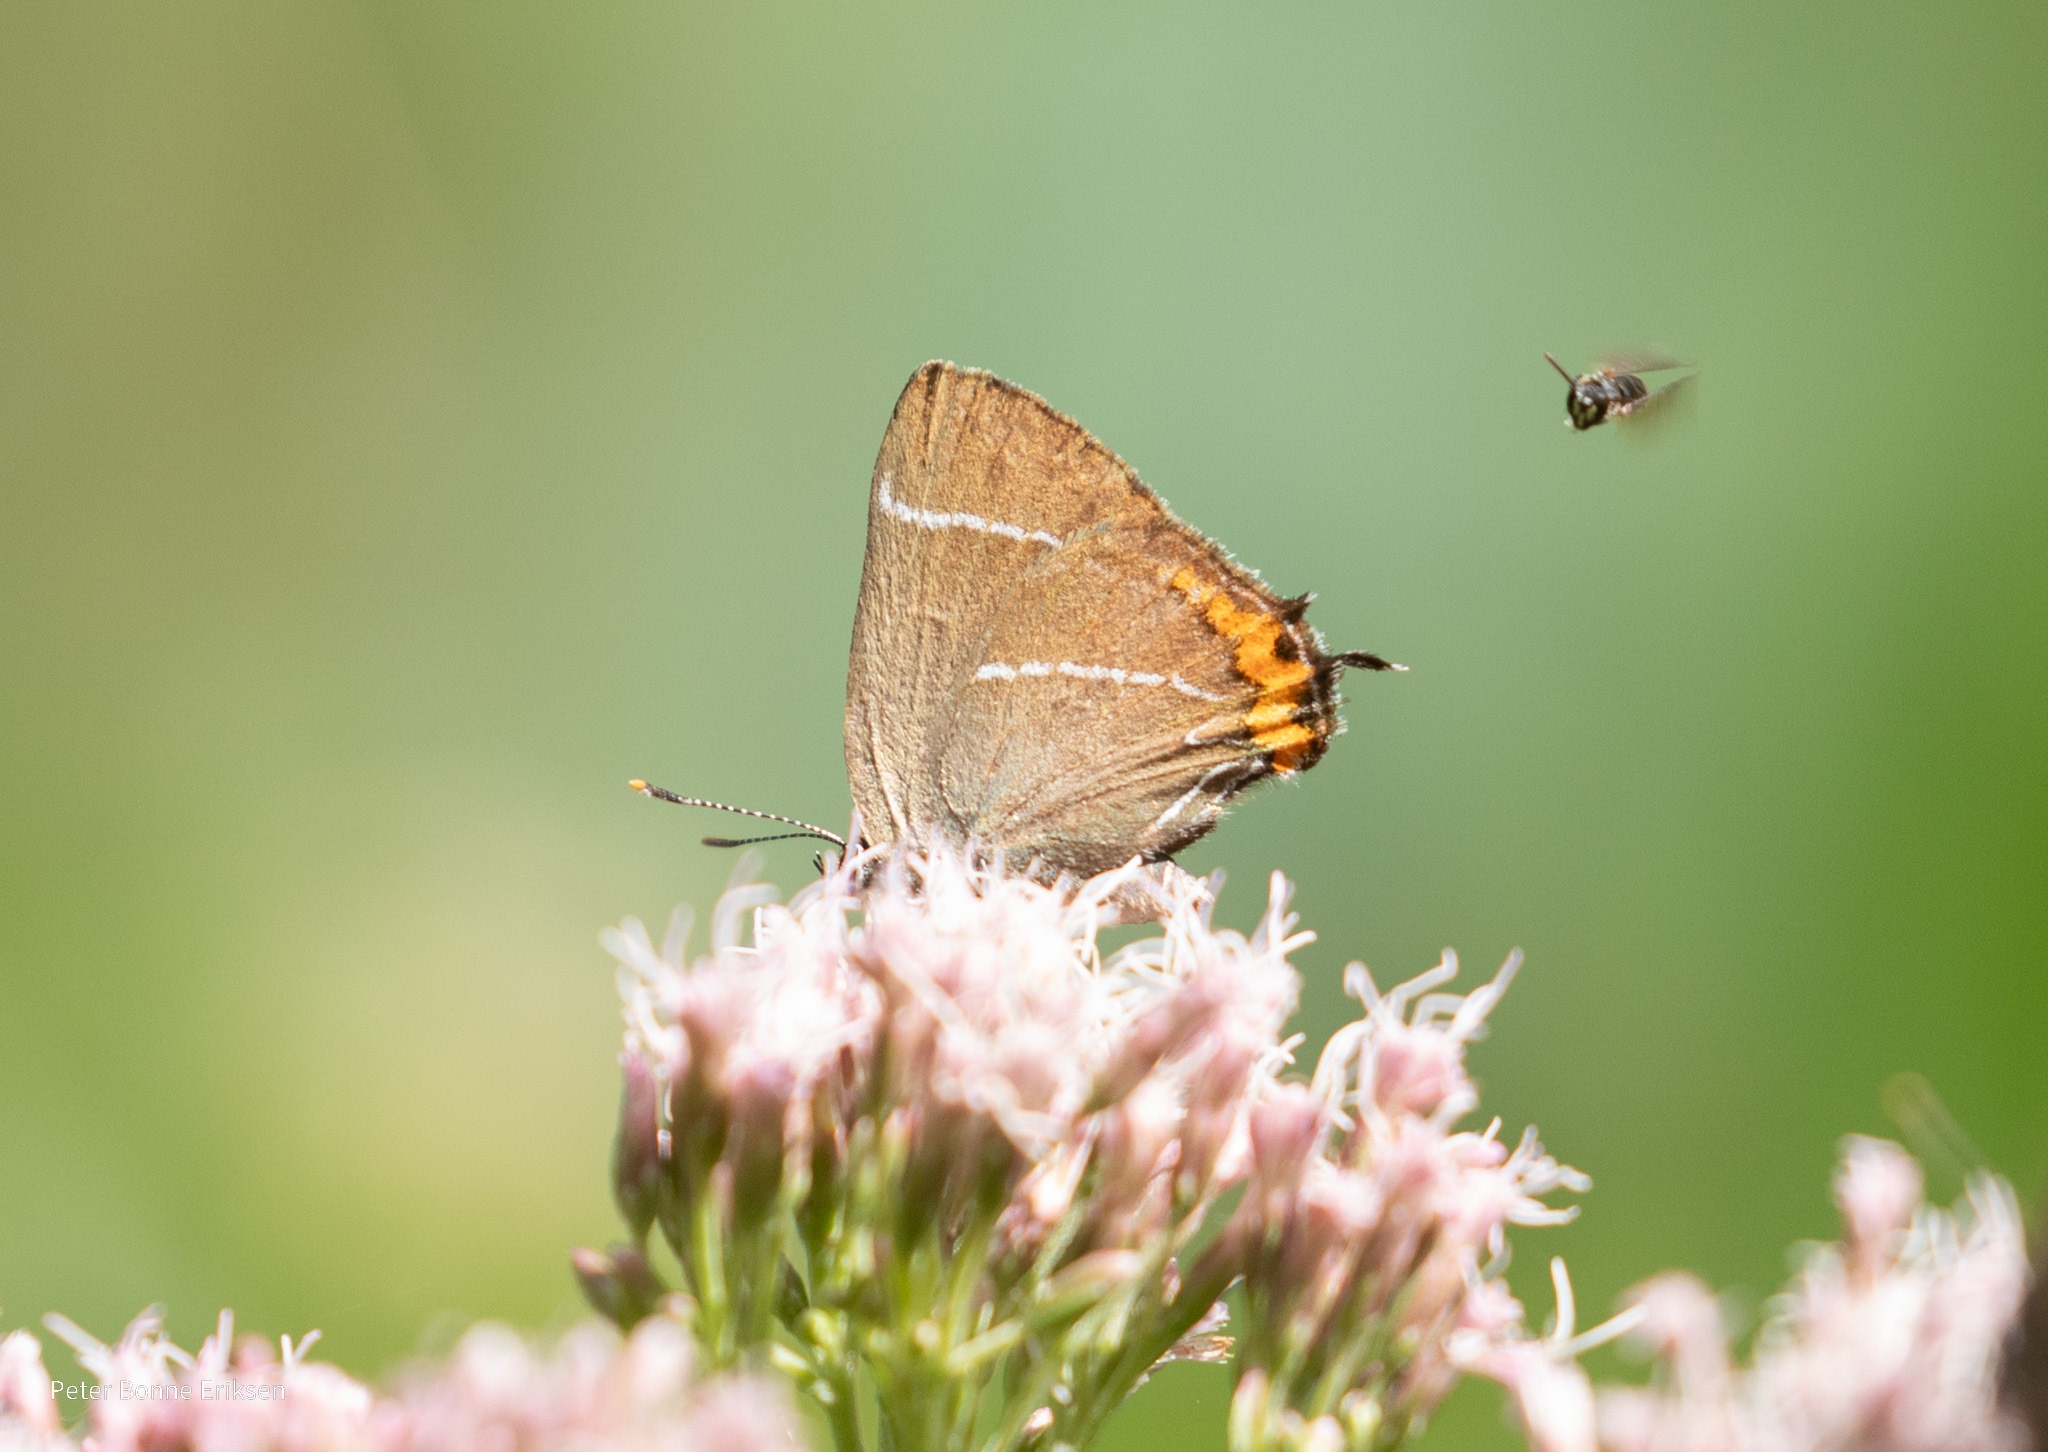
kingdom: Animalia
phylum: Arthropoda
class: Insecta
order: Lepidoptera
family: Lycaenidae
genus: Satyrium
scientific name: Satyrium w-album
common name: Det hvide W
